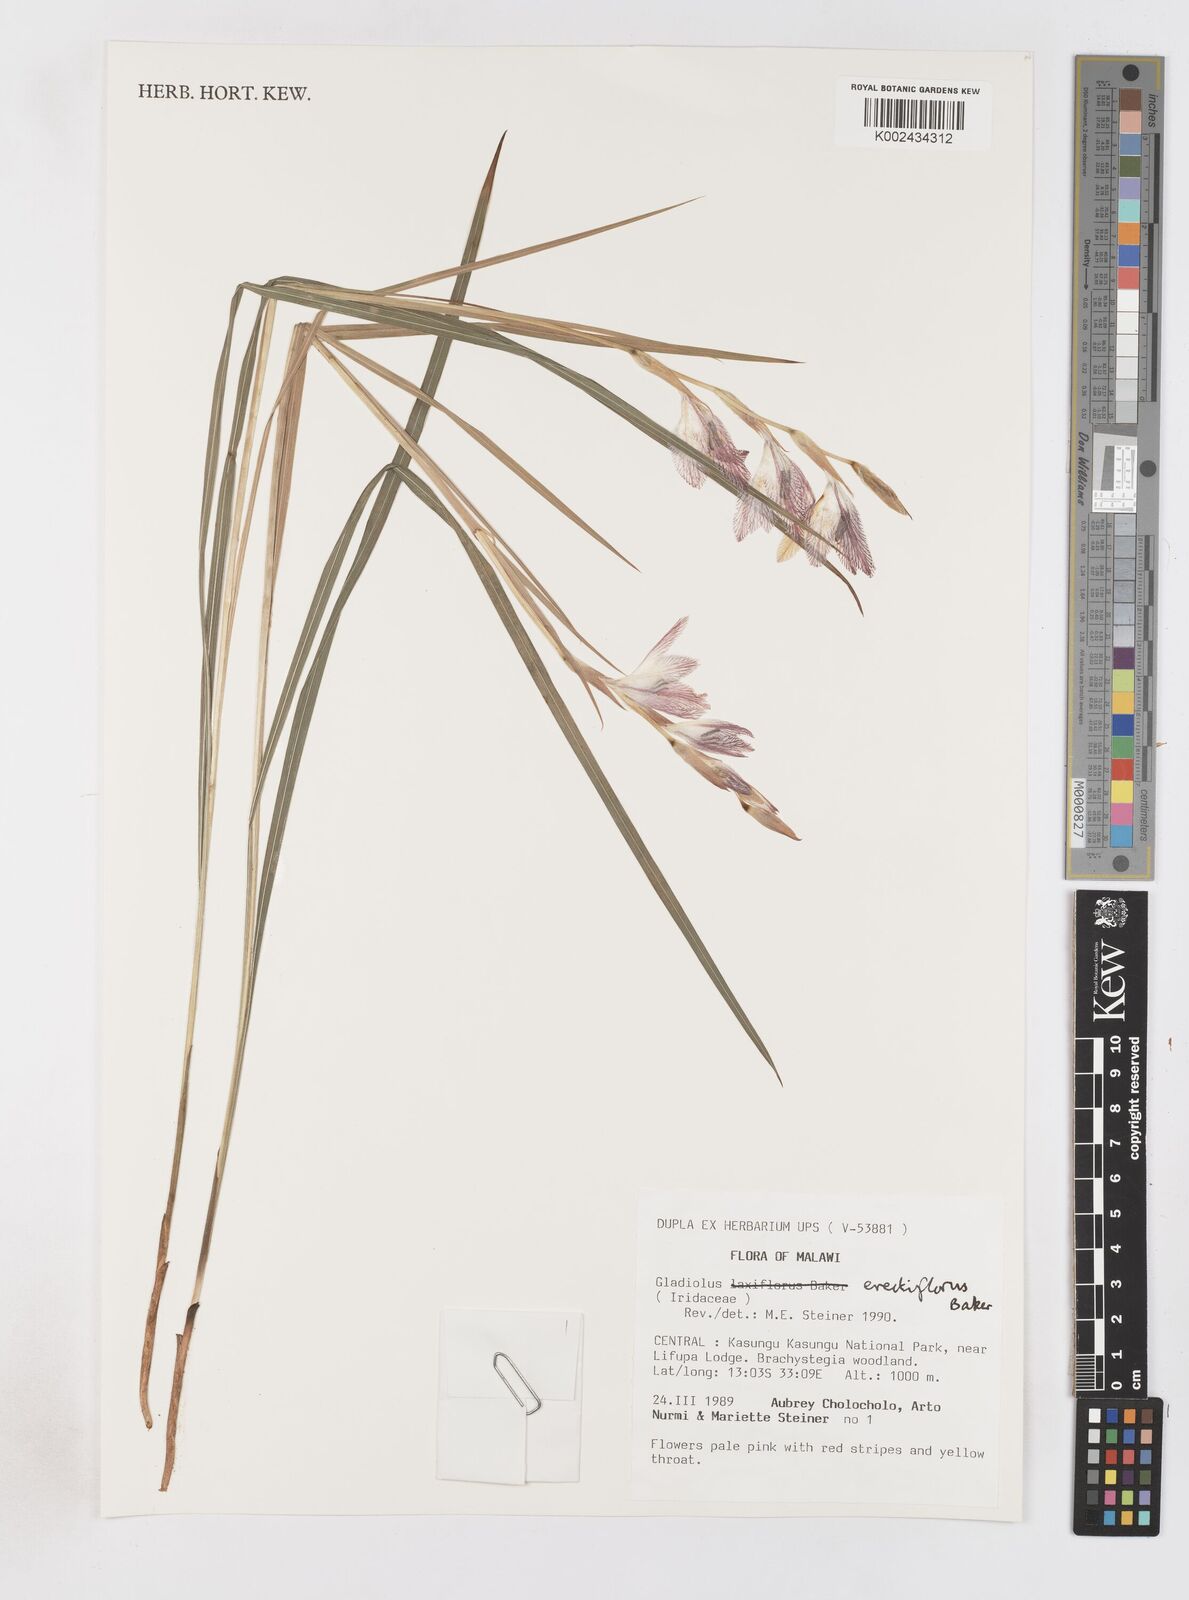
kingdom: Plantae
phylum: Tracheophyta
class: Liliopsida
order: Asparagales
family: Iridaceae
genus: Gladiolus
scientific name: Gladiolus erectiflorus
